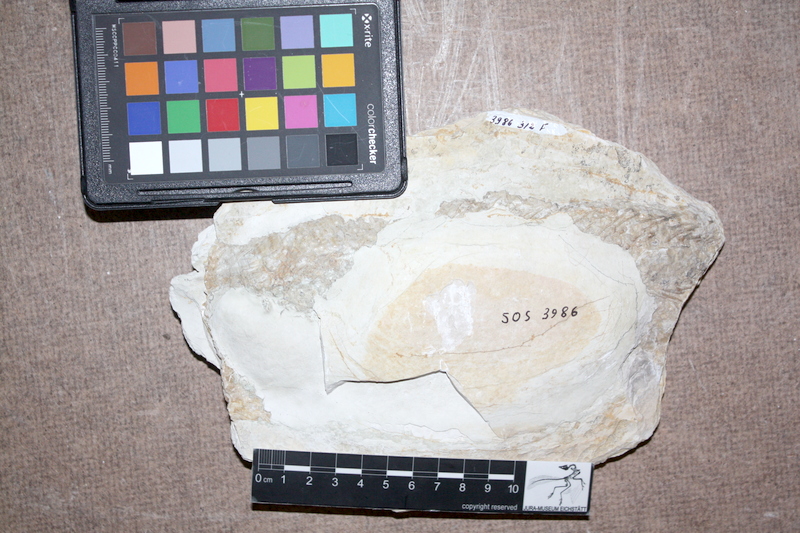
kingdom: Animalia
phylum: Chordata
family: Ankylophoridae
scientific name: Ankylophoridae
